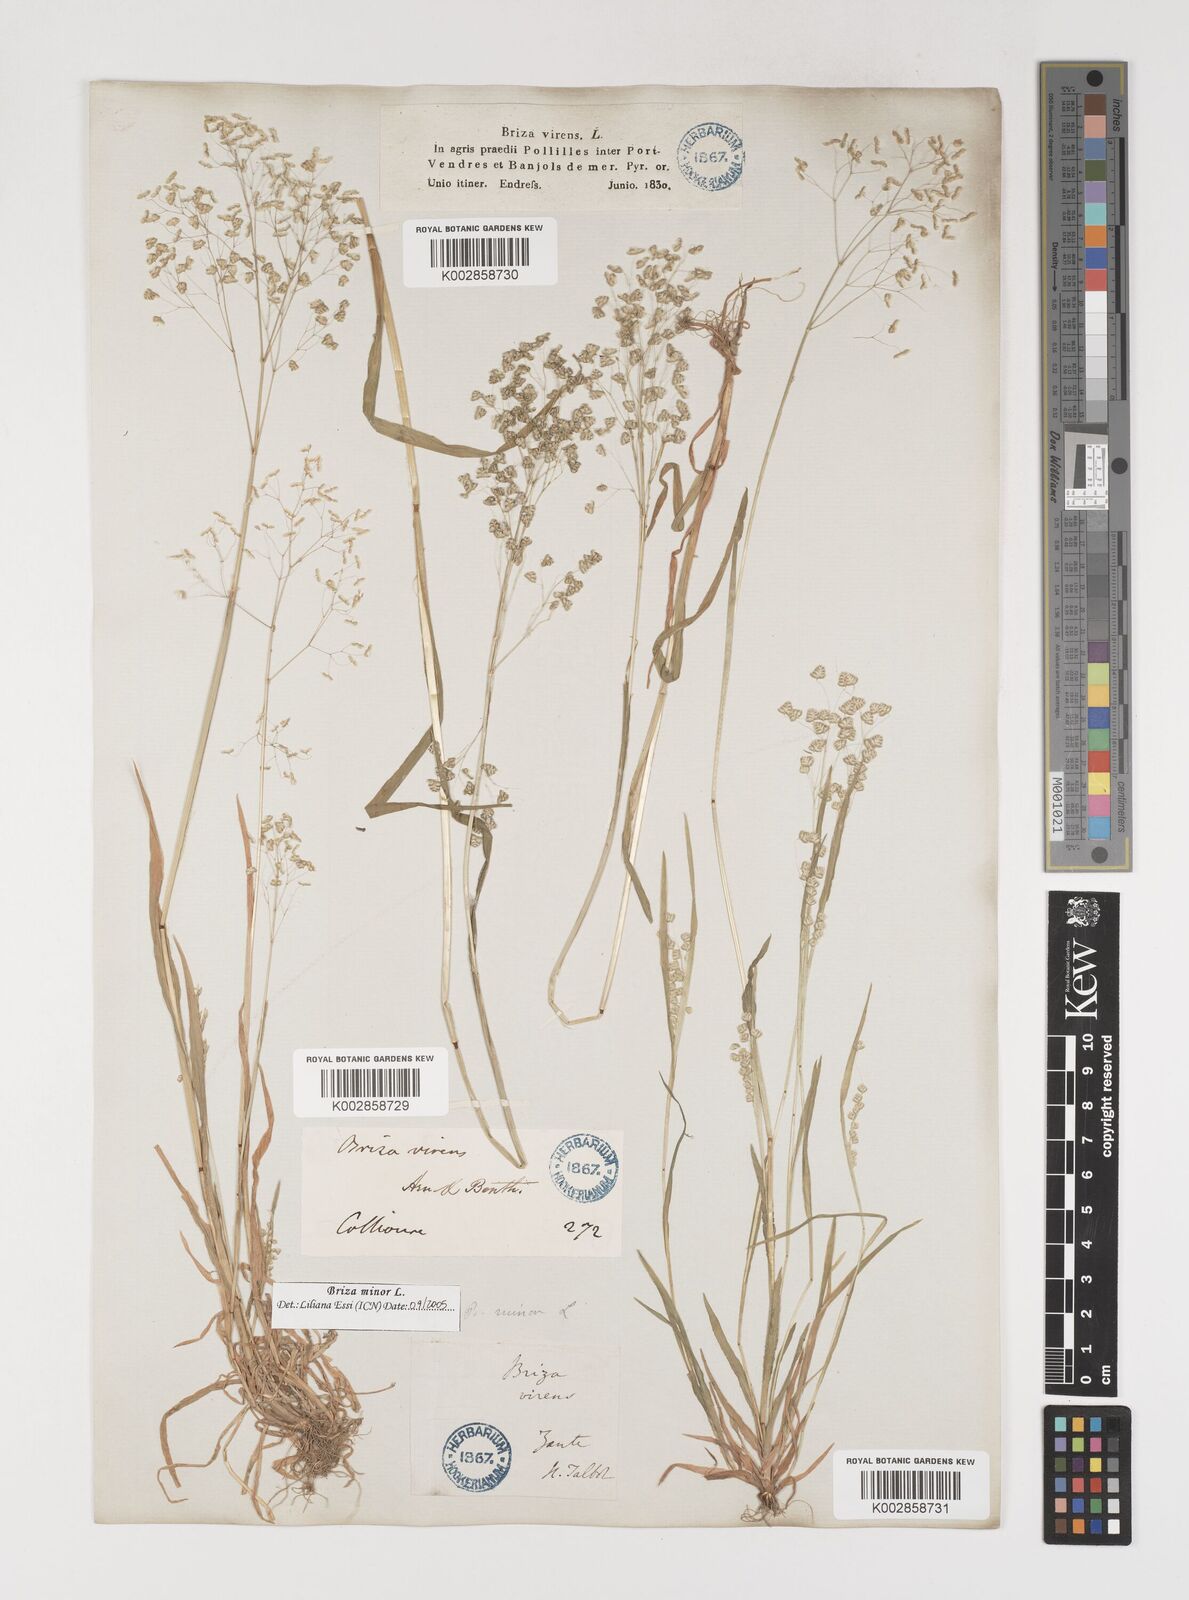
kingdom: Plantae
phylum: Tracheophyta
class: Liliopsida
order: Poales
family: Poaceae
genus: Briza
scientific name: Briza minor
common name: Lesser quaking-grass
